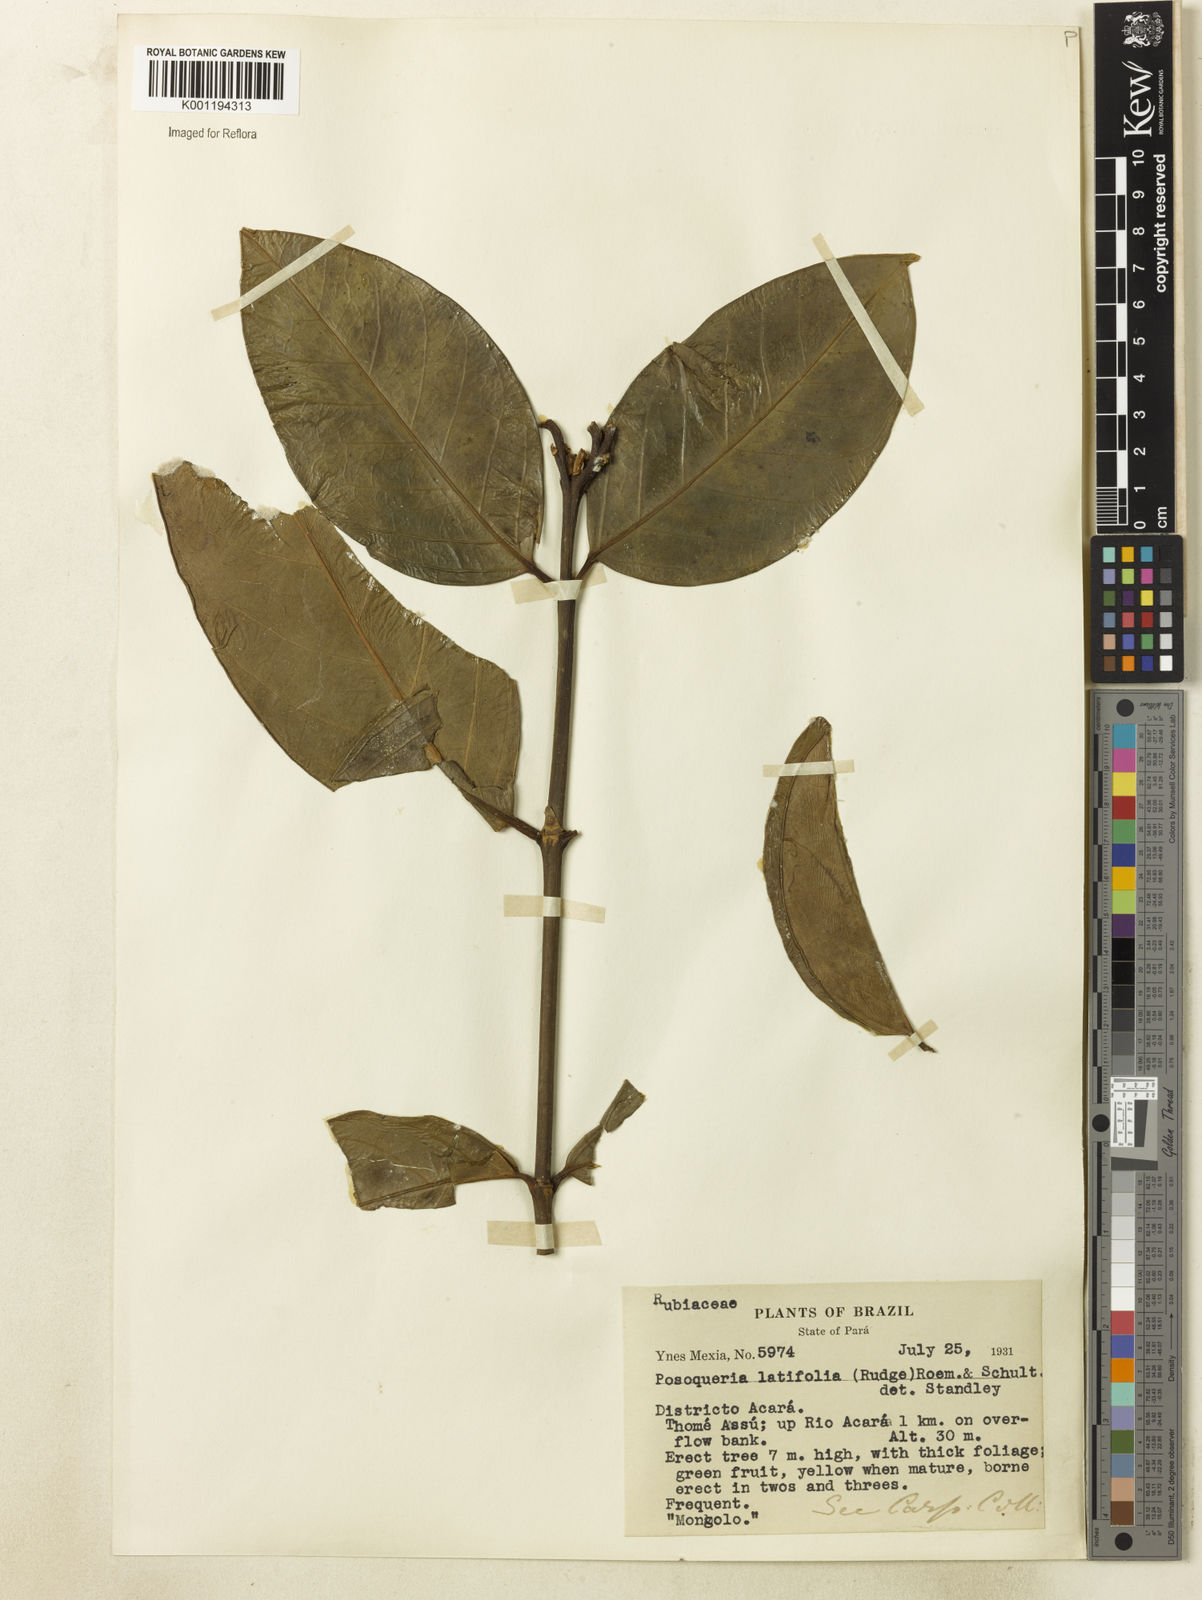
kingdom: Plantae
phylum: Tracheophyta
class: Magnoliopsida
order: Gentianales
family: Rubiaceae
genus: Posoqueria
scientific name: Posoqueria latifolia
